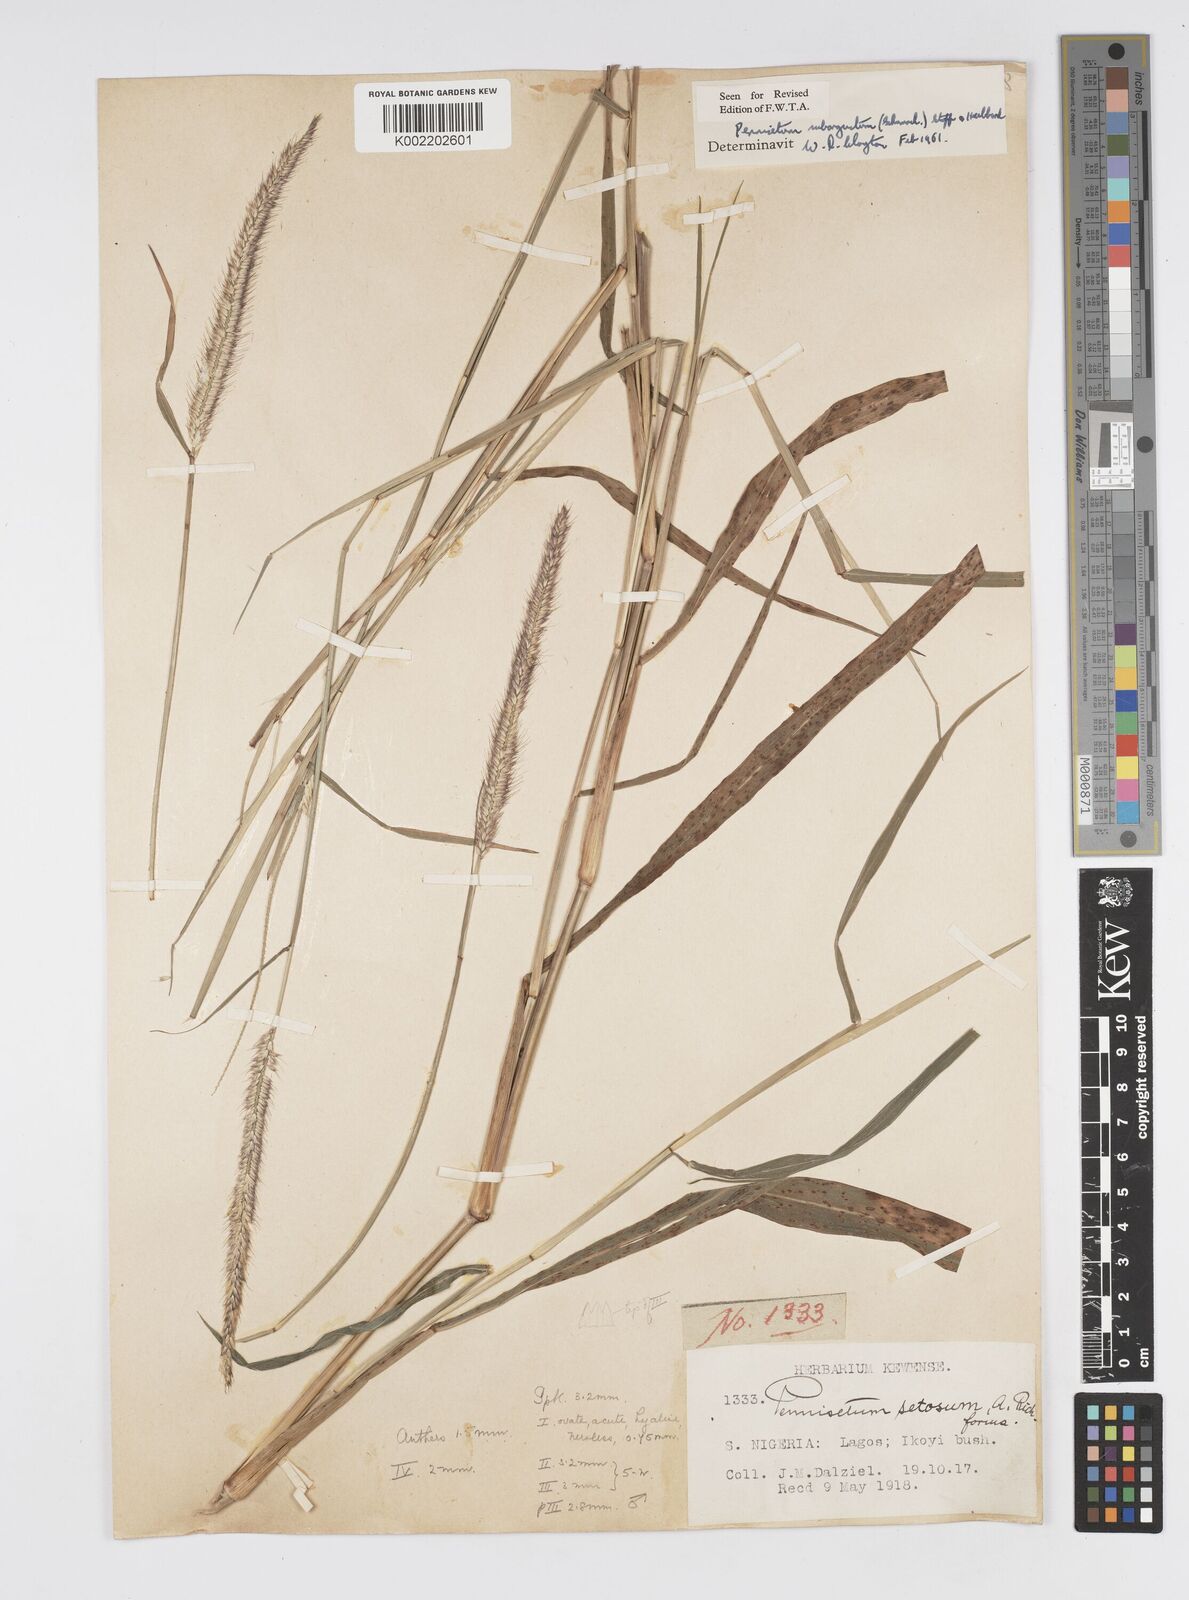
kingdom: Plantae
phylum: Tracheophyta
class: Liliopsida
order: Poales
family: Poaceae
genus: Setaria
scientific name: Setaria parviflora
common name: Knotroot bristle-grass
